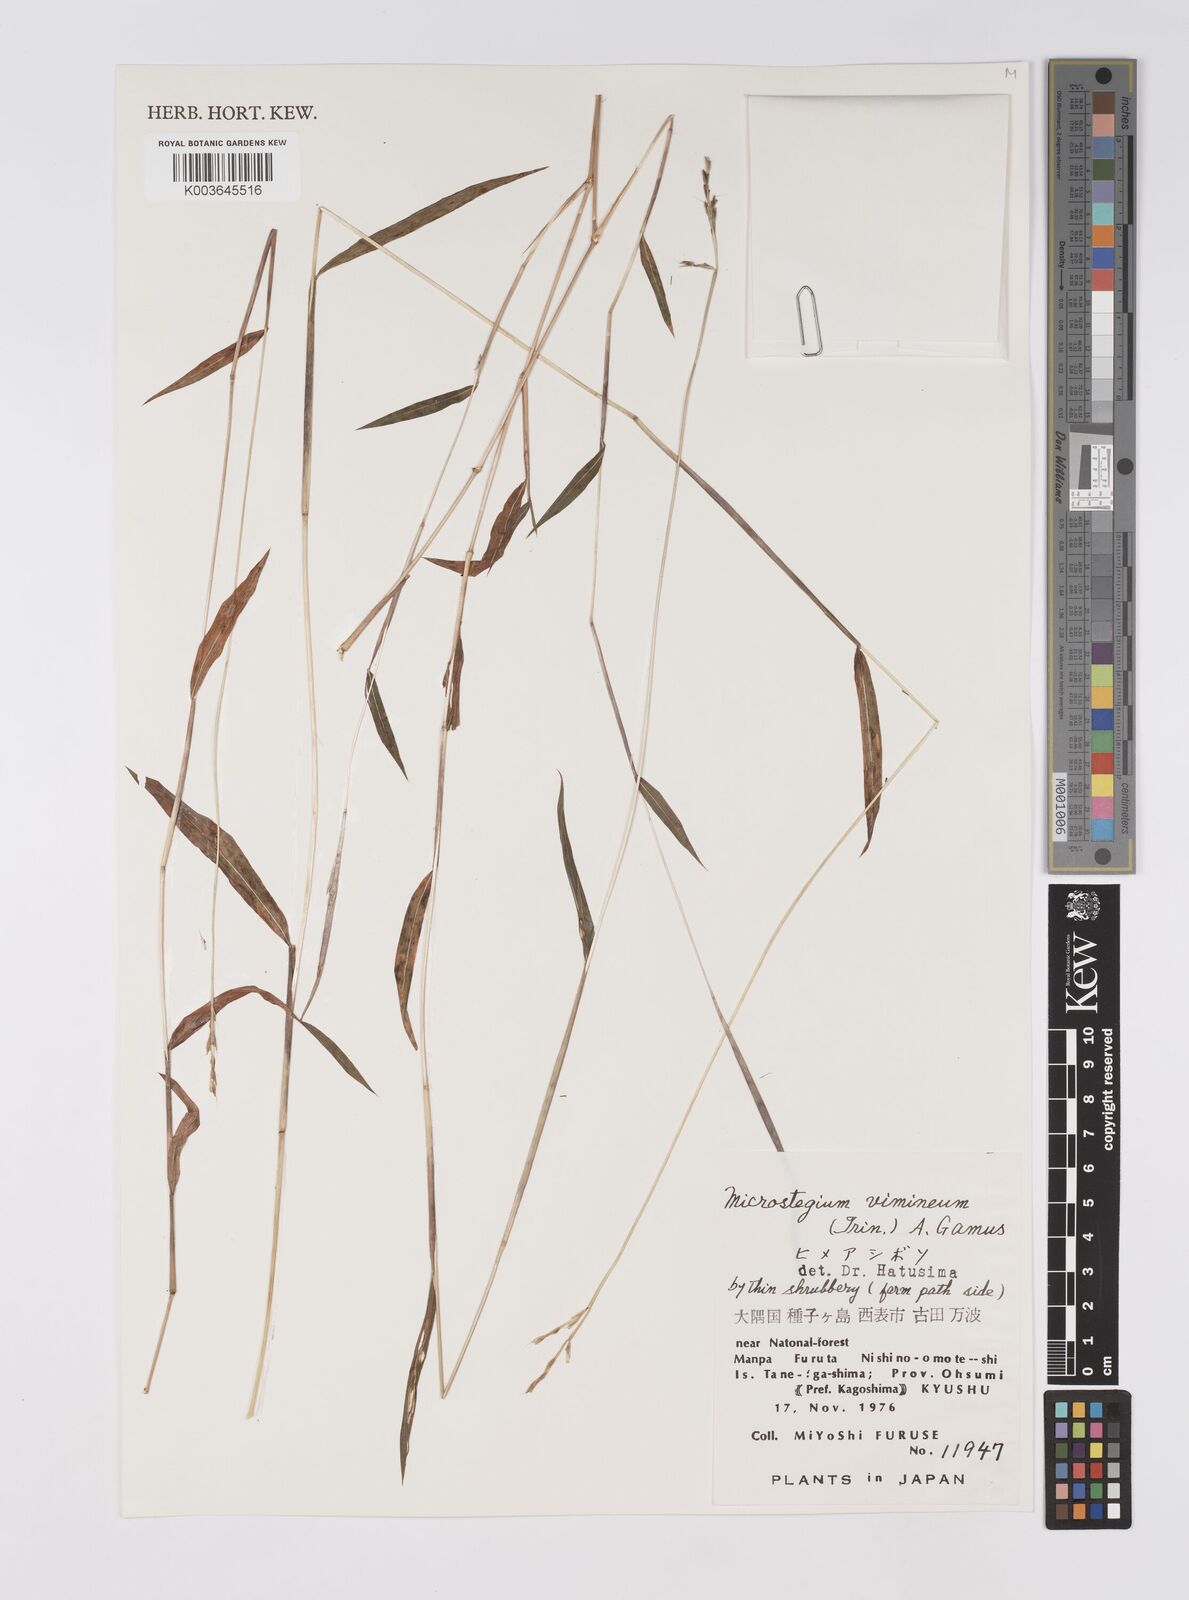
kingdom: Plantae
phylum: Tracheophyta
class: Liliopsida
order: Poales
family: Poaceae
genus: Microstegium
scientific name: Microstegium vimineum
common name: Japanese stiltgrass
